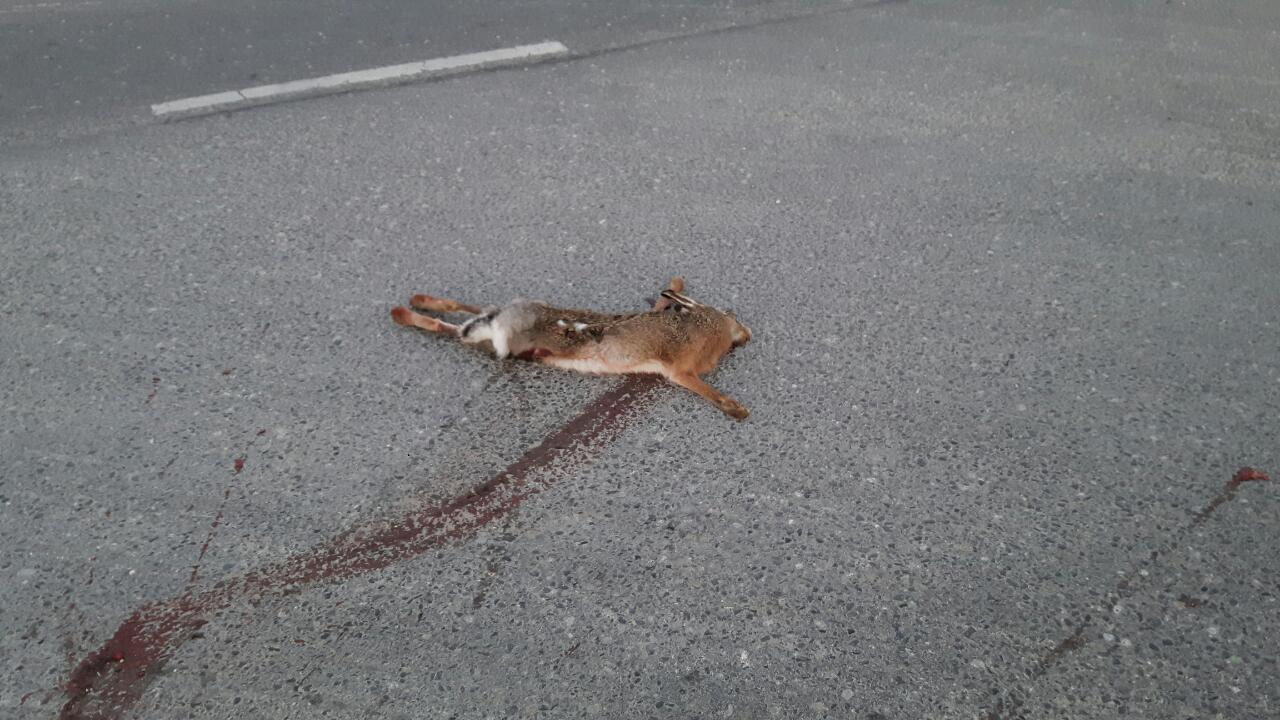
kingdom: Animalia
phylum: Chordata
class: Mammalia
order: Lagomorpha
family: Leporidae
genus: Lepus
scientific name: Lepus europaeus
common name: European hare
